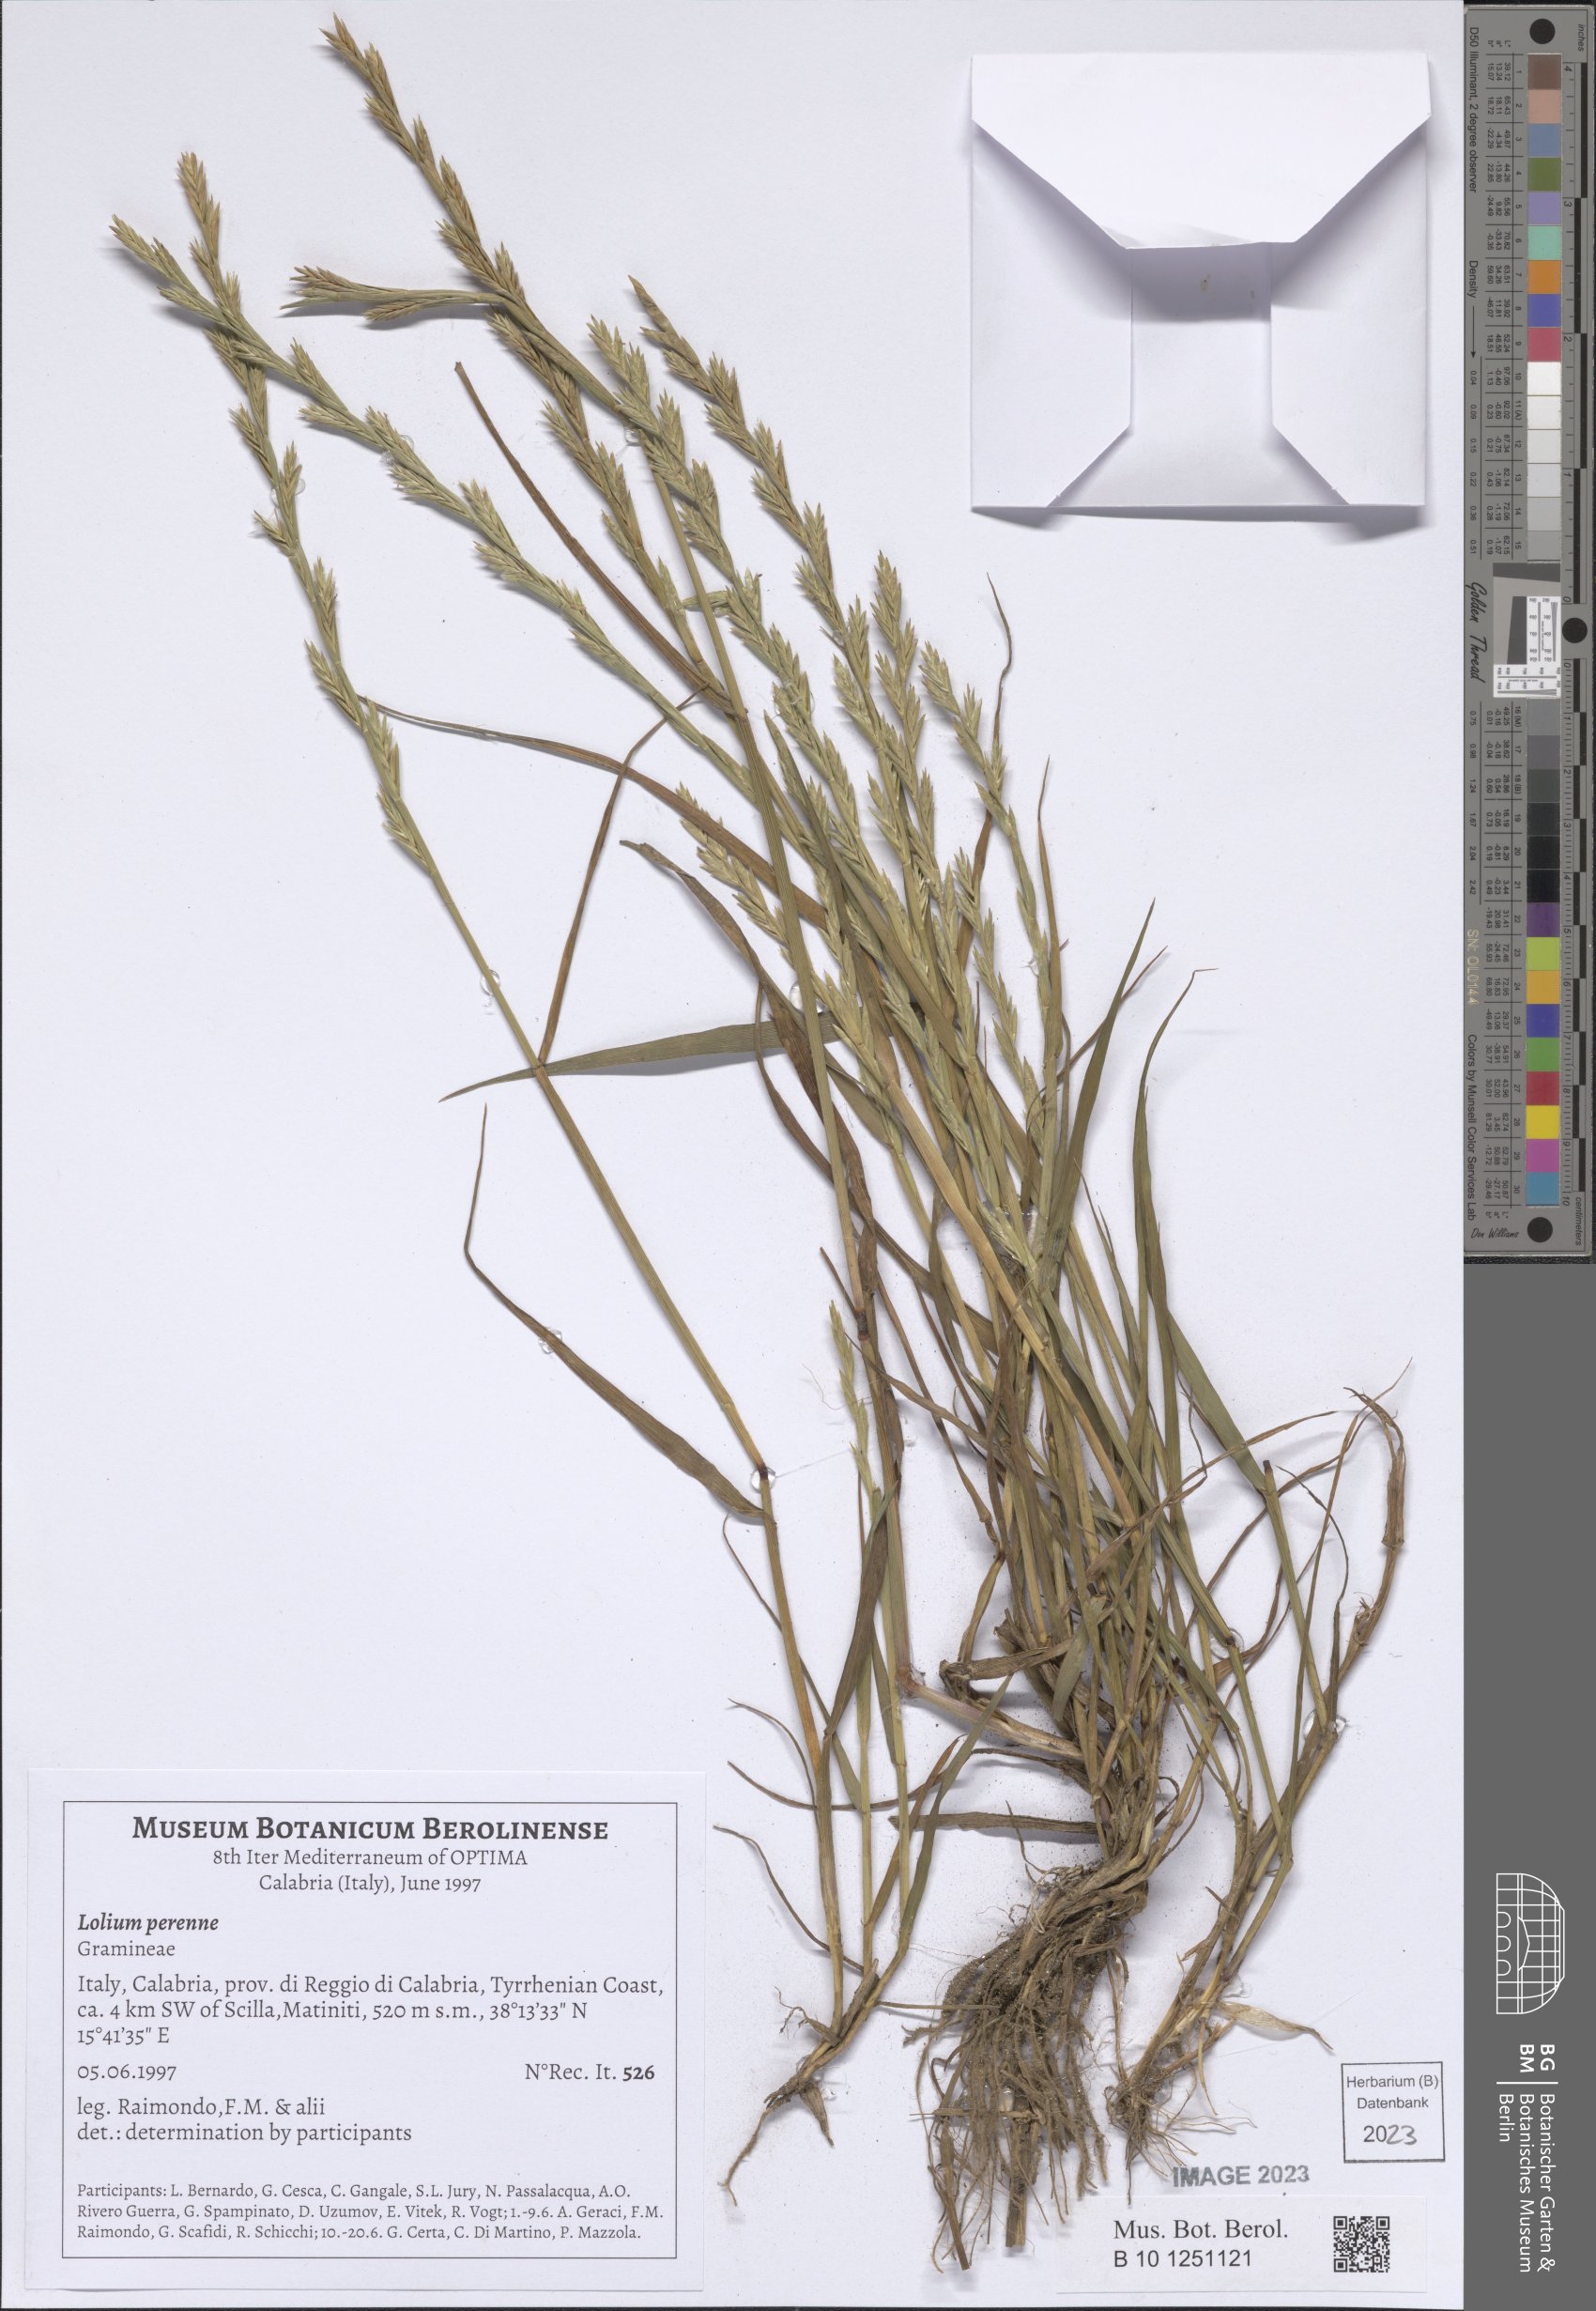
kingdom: Plantae
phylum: Tracheophyta
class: Liliopsida
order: Poales
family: Poaceae
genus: Lolium
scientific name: Lolium perenne
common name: Perennial ryegrass
